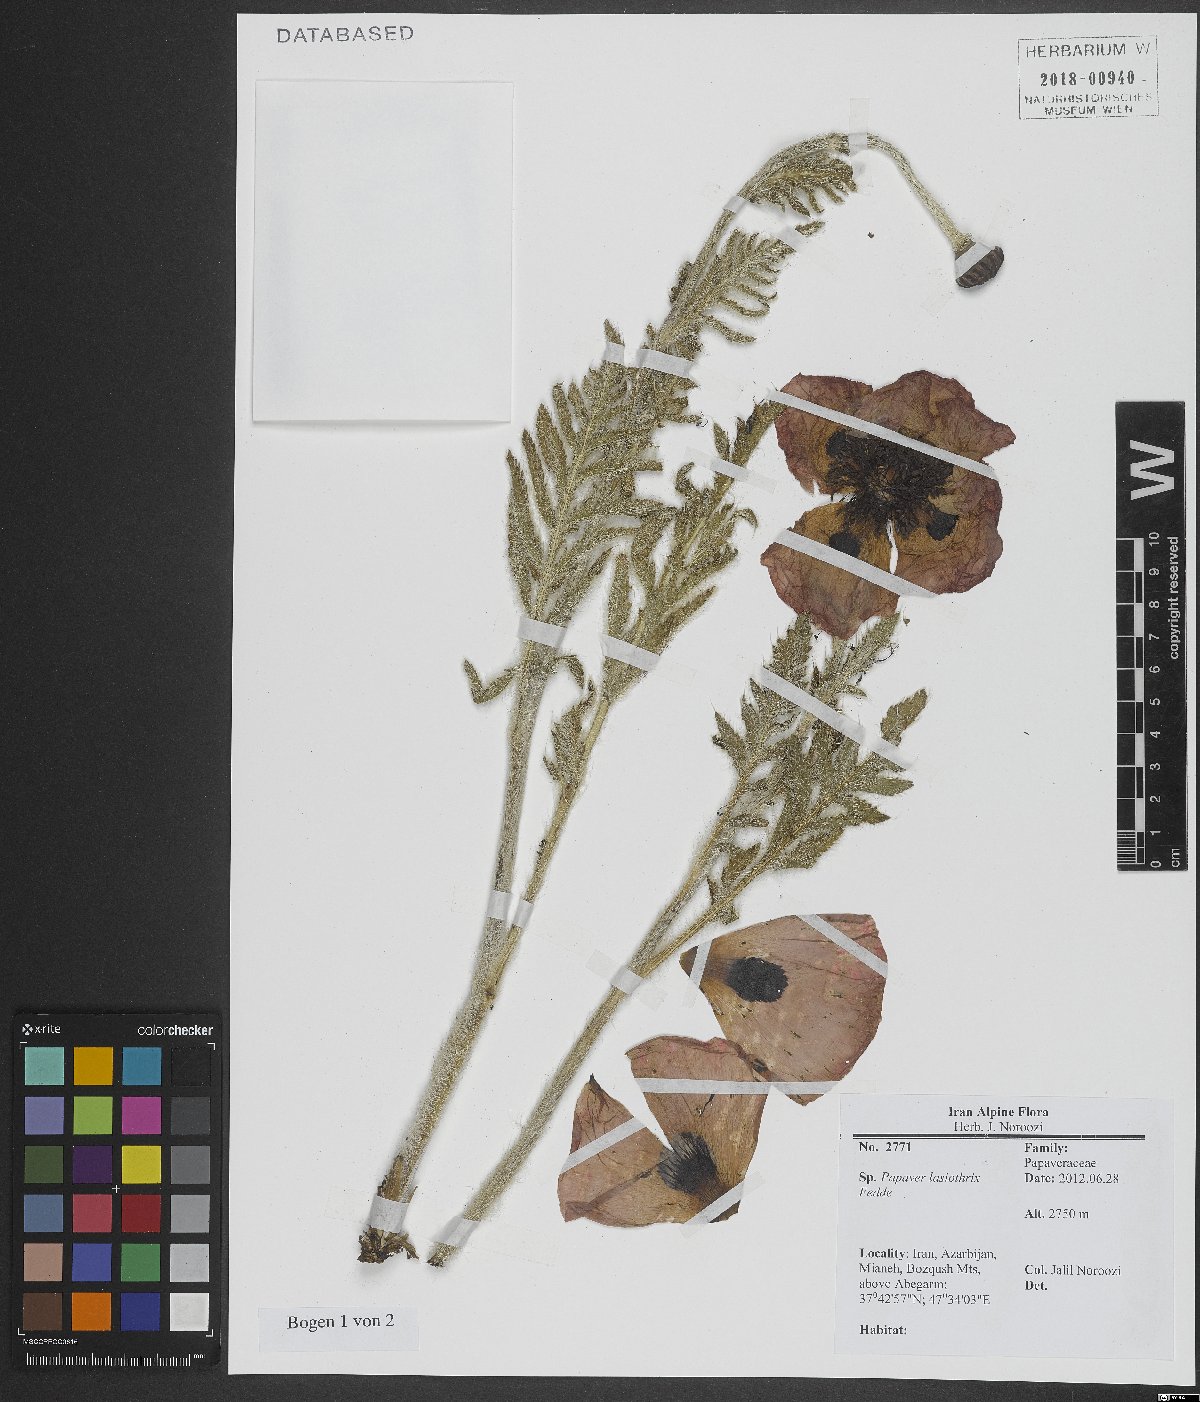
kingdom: Plantae
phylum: Tracheophyta
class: Magnoliopsida
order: Ranunculales
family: Papaveraceae
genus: Papaver
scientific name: Papaver setiferum
